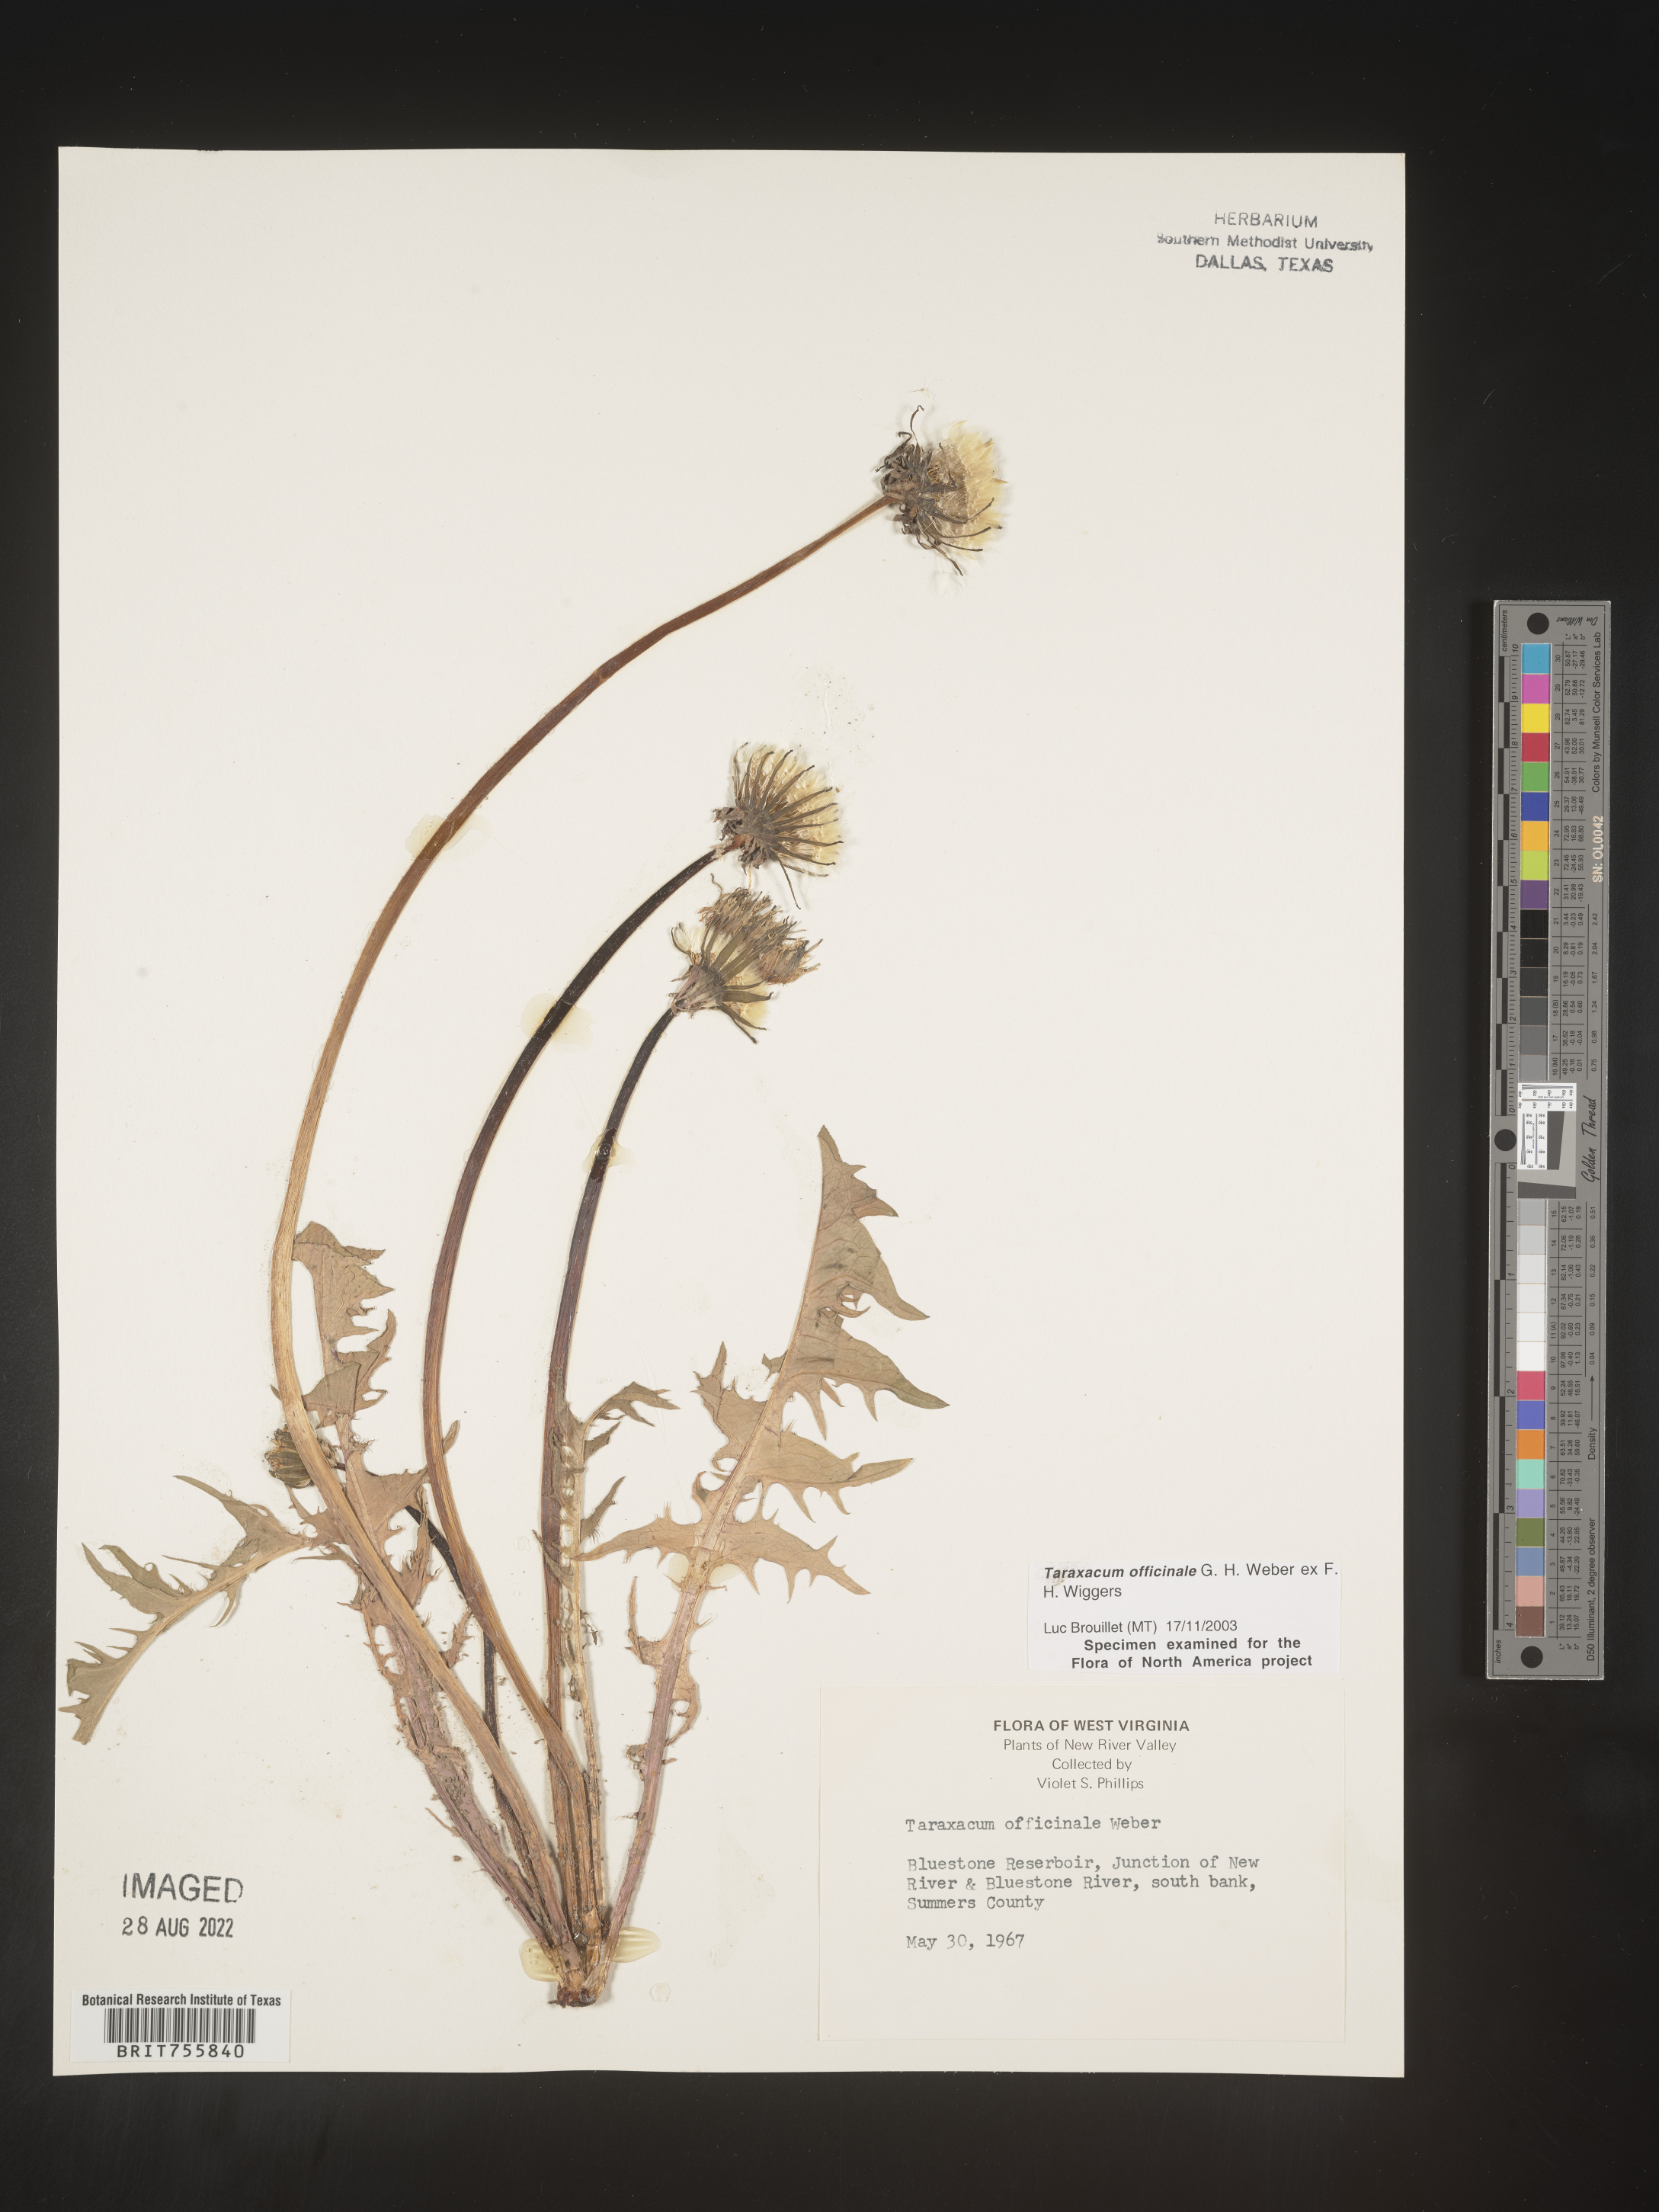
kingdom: Plantae
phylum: Tracheophyta
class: Magnoliopsida
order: Asterales
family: Asteraceae
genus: Taraxacum
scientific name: Taraxacum officinale
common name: Common dandelion
